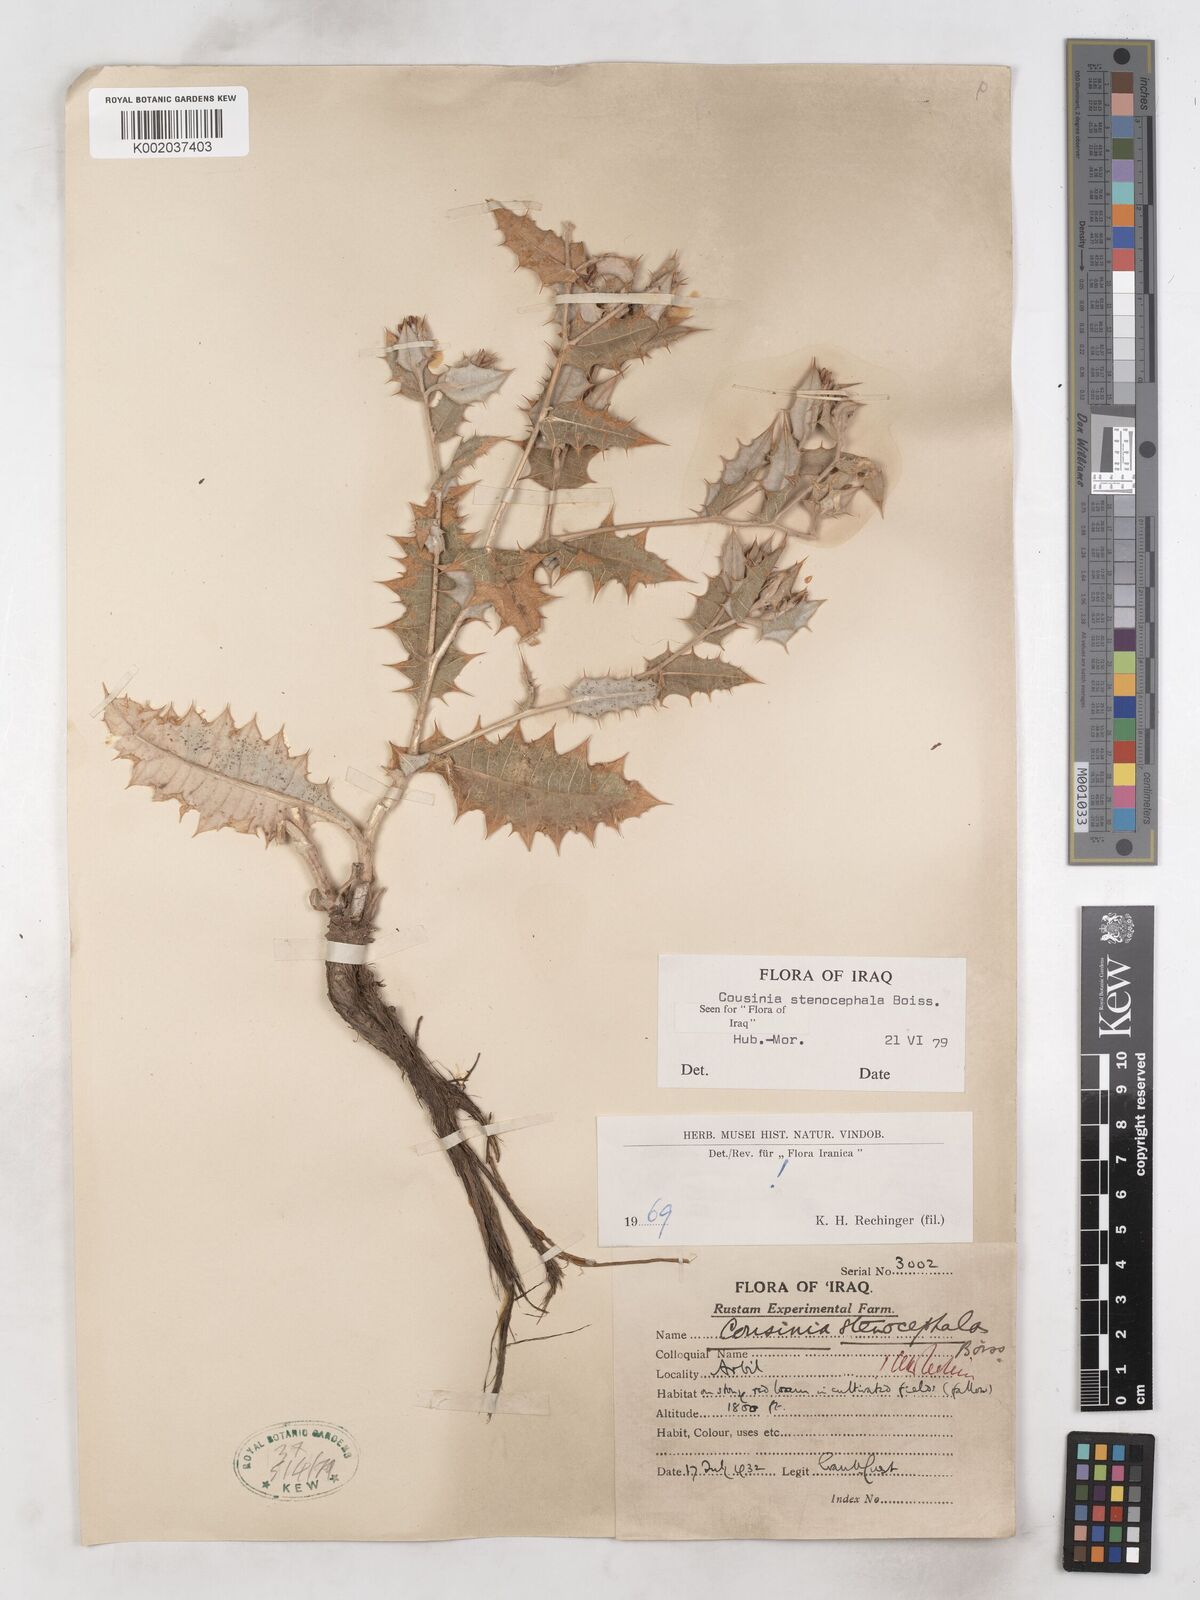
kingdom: Plantae
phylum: Tracheophyta
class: Magnoliopsida
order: Asterales
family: Asteraceae
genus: Cousinia
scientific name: Cousinia stenocephala
